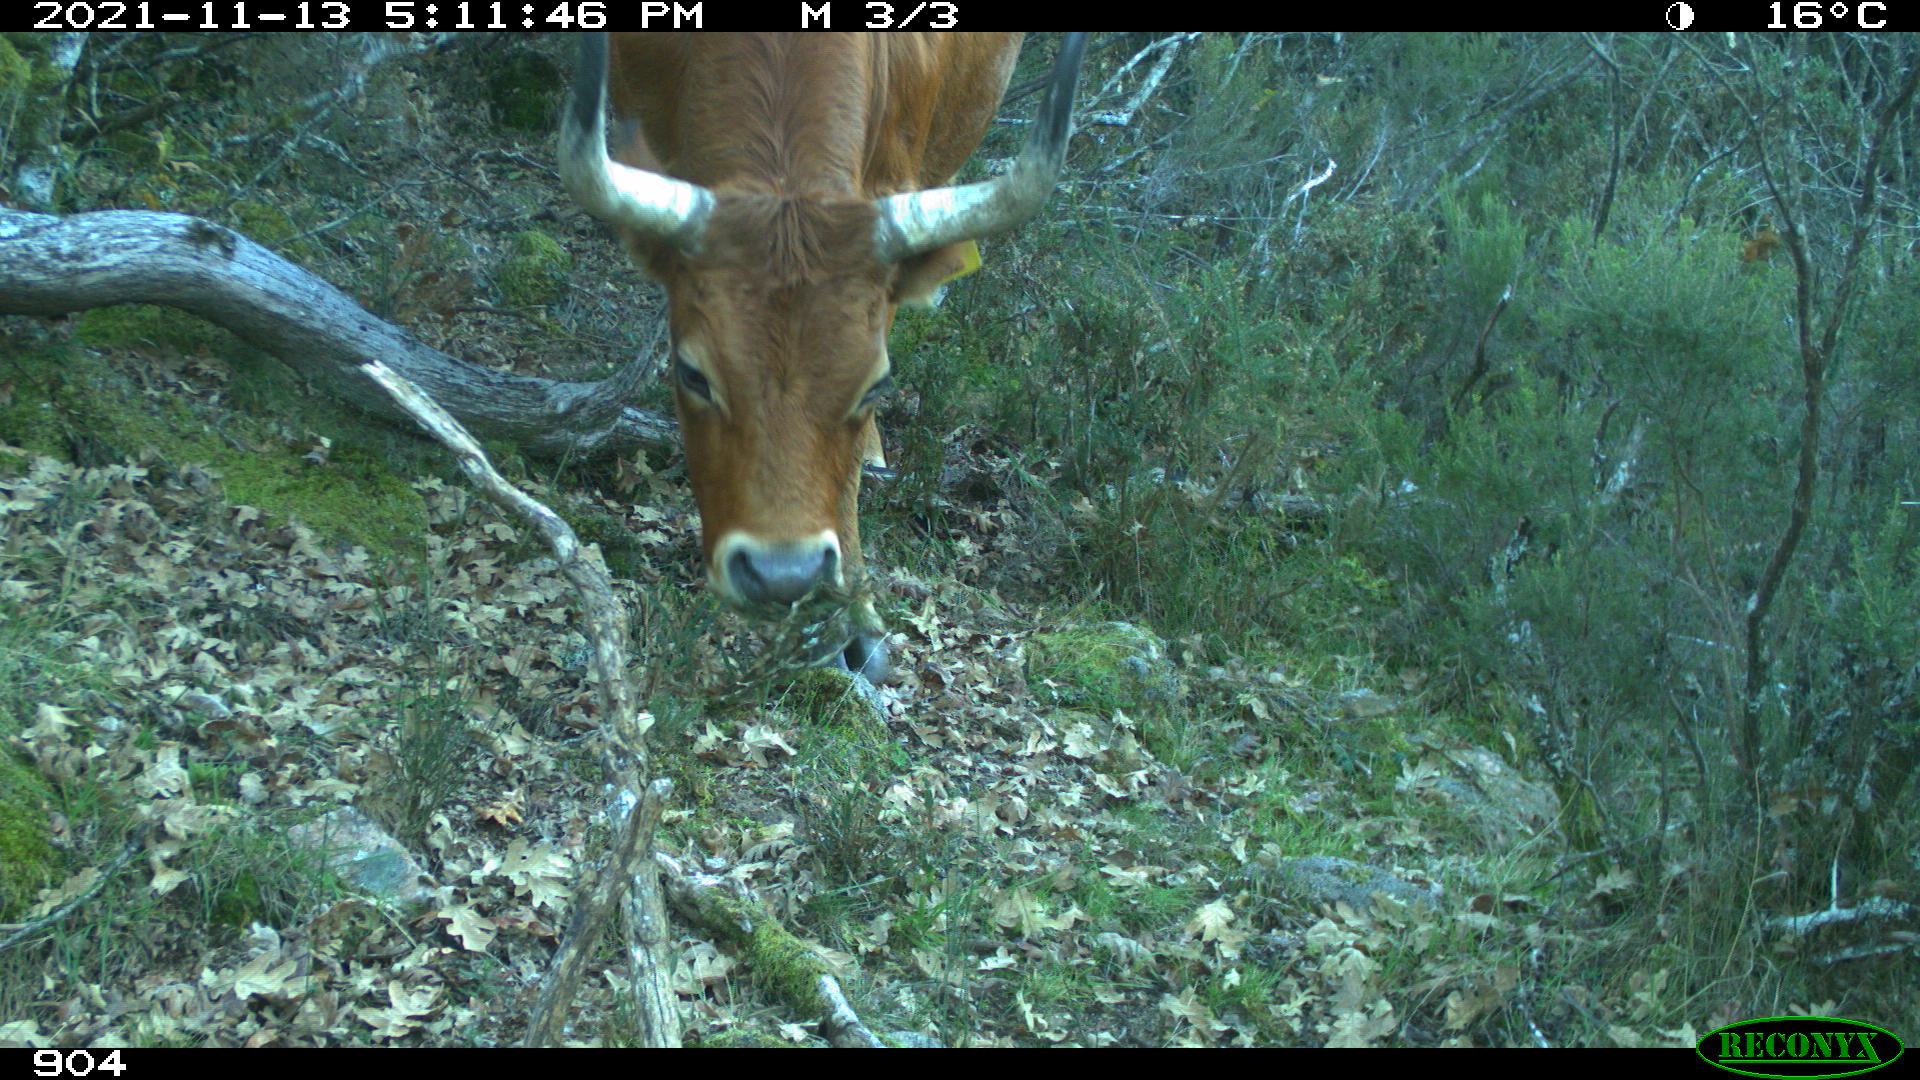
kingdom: Animalia
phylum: Chordata
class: Mammalia
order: Artiodactyla
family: Bovidae
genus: Bos
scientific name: Bos taurus
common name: Domesticated cattle
